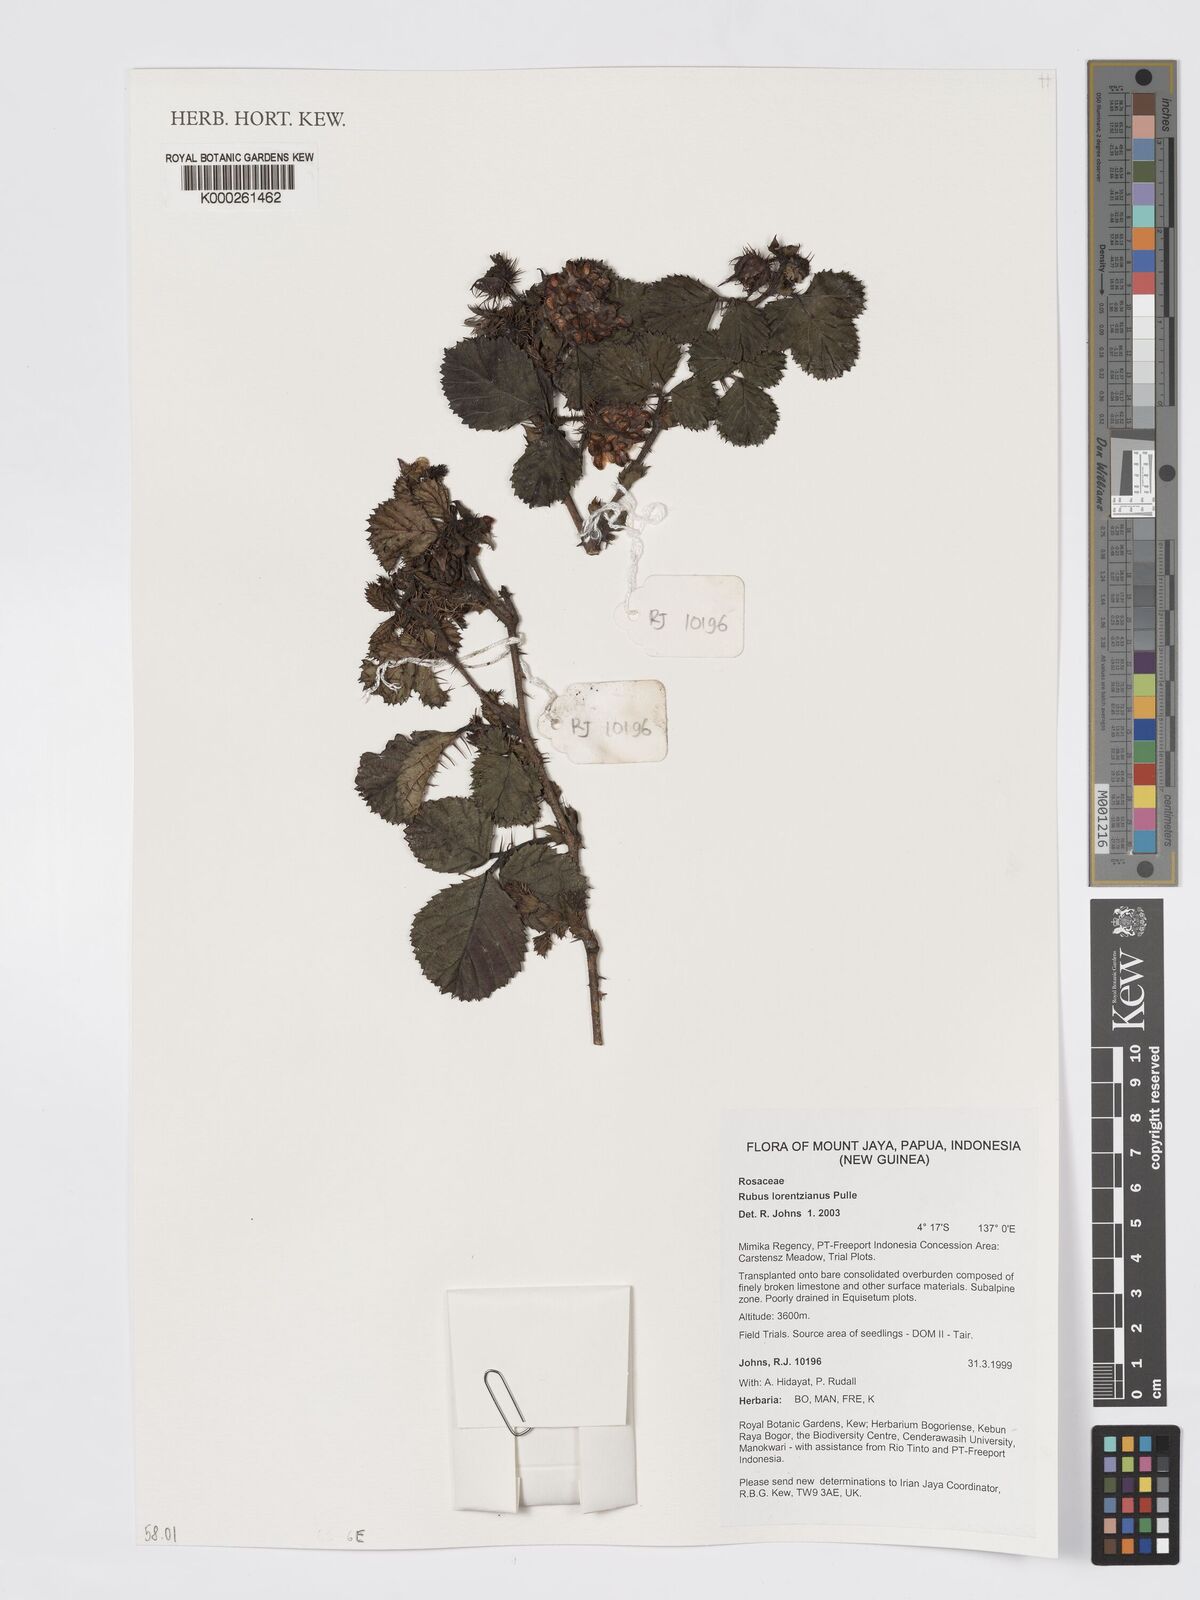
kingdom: Plantae
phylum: Tracheophyta
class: Magnoliopsida
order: Rosales
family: Rosaceae
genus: Rubus
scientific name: Rubus lorentzianus
